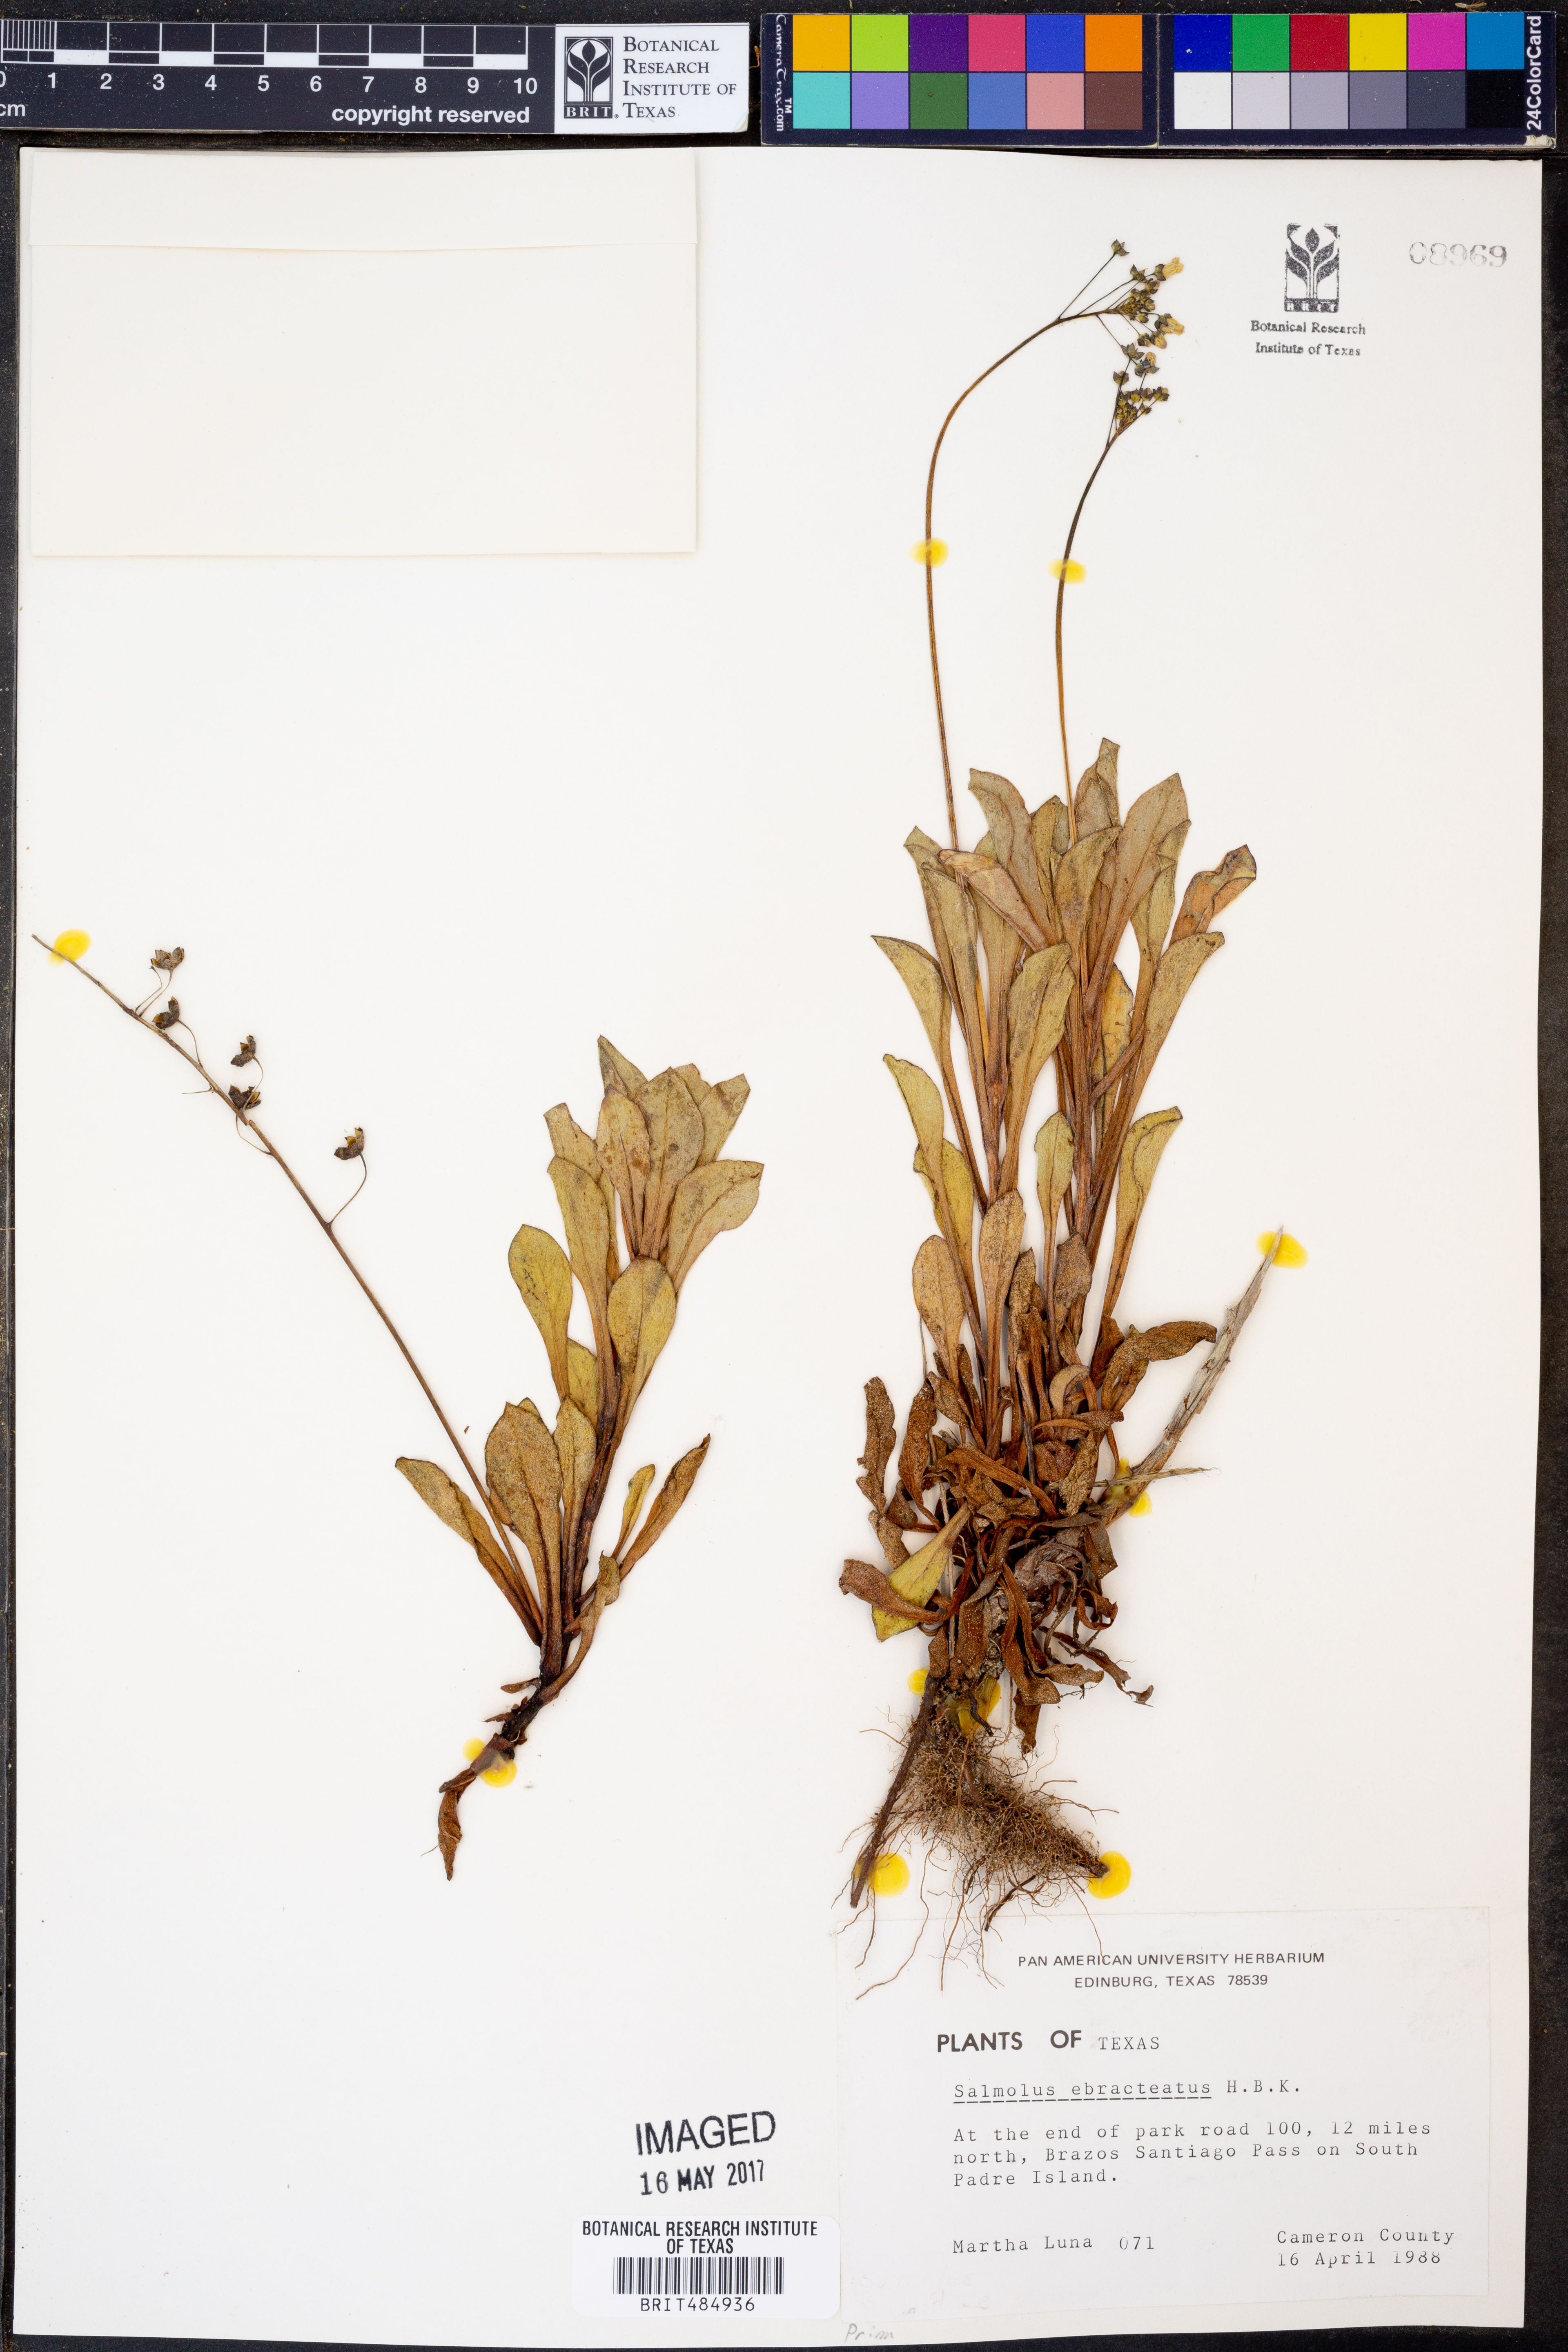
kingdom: Plantae
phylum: Tracheophyta
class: Magnoliopsida
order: Ericales
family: Primulaceae
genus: Samolus
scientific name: Samolus ebracteatus
